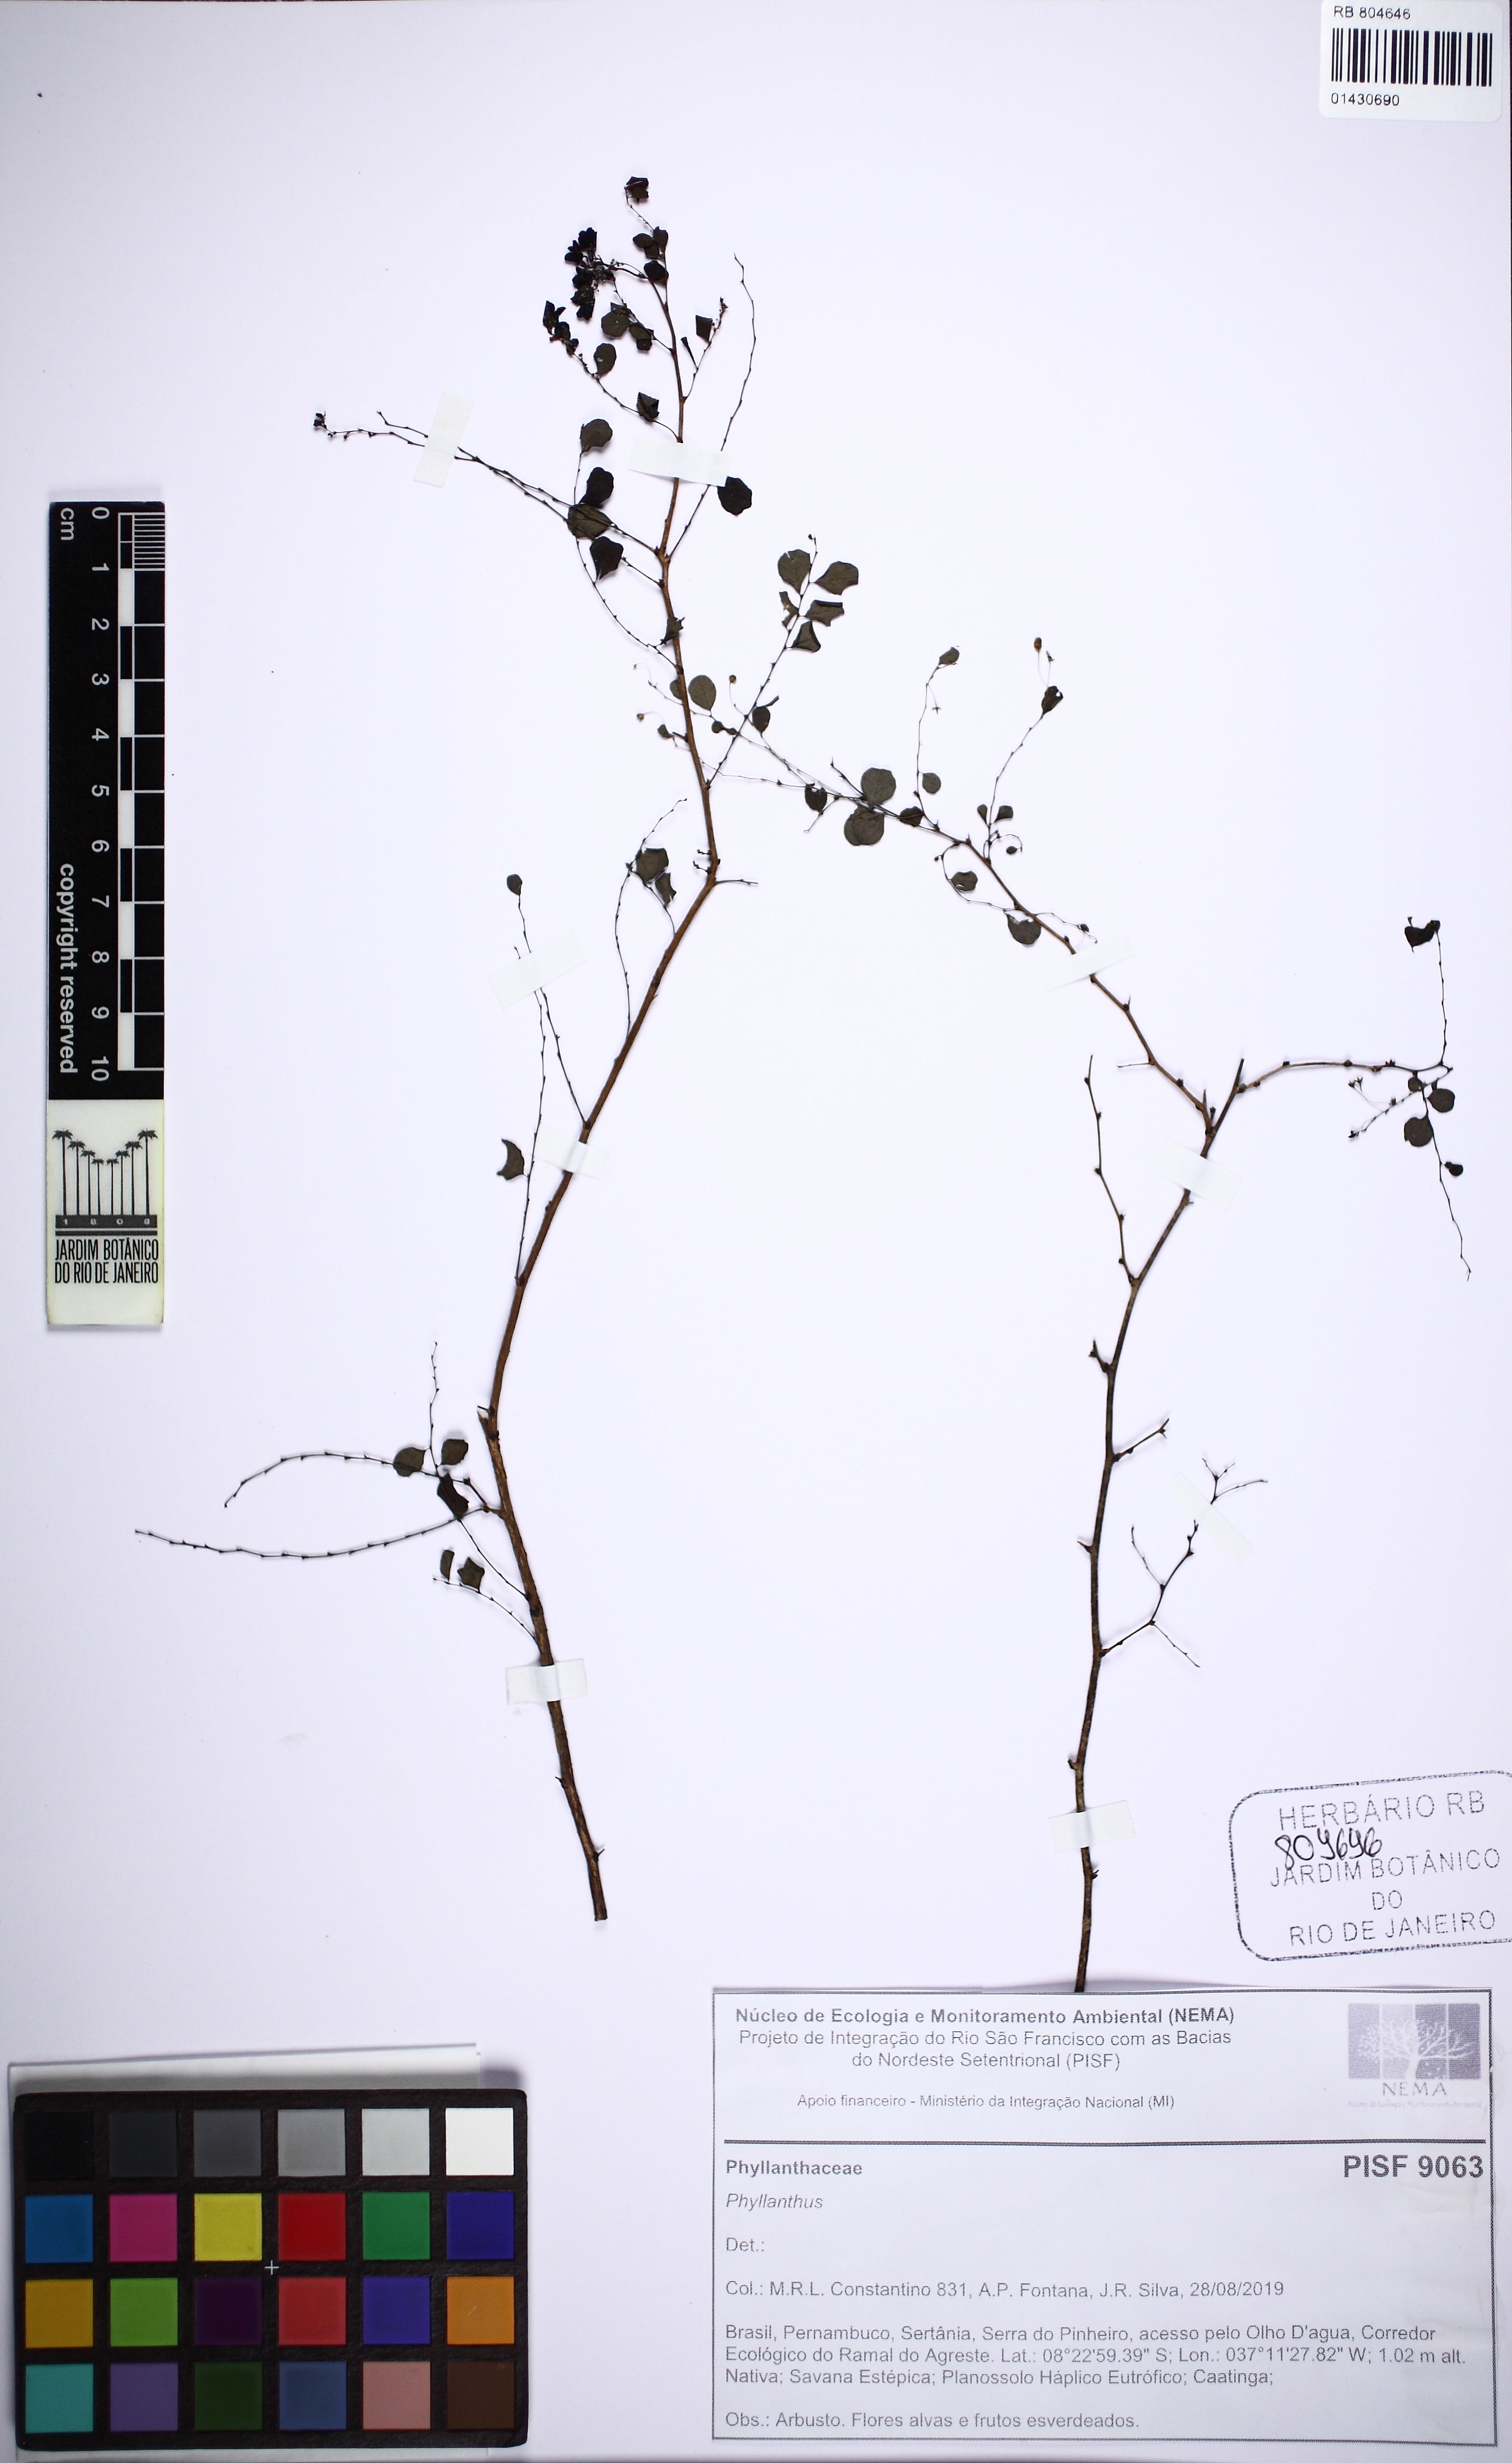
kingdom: Plantae
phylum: Tracheophyta
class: Magnoliopsida
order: Malpighiales
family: Phyllanthaceae
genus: Phyllanthus
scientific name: Phyllanthus claussenii
